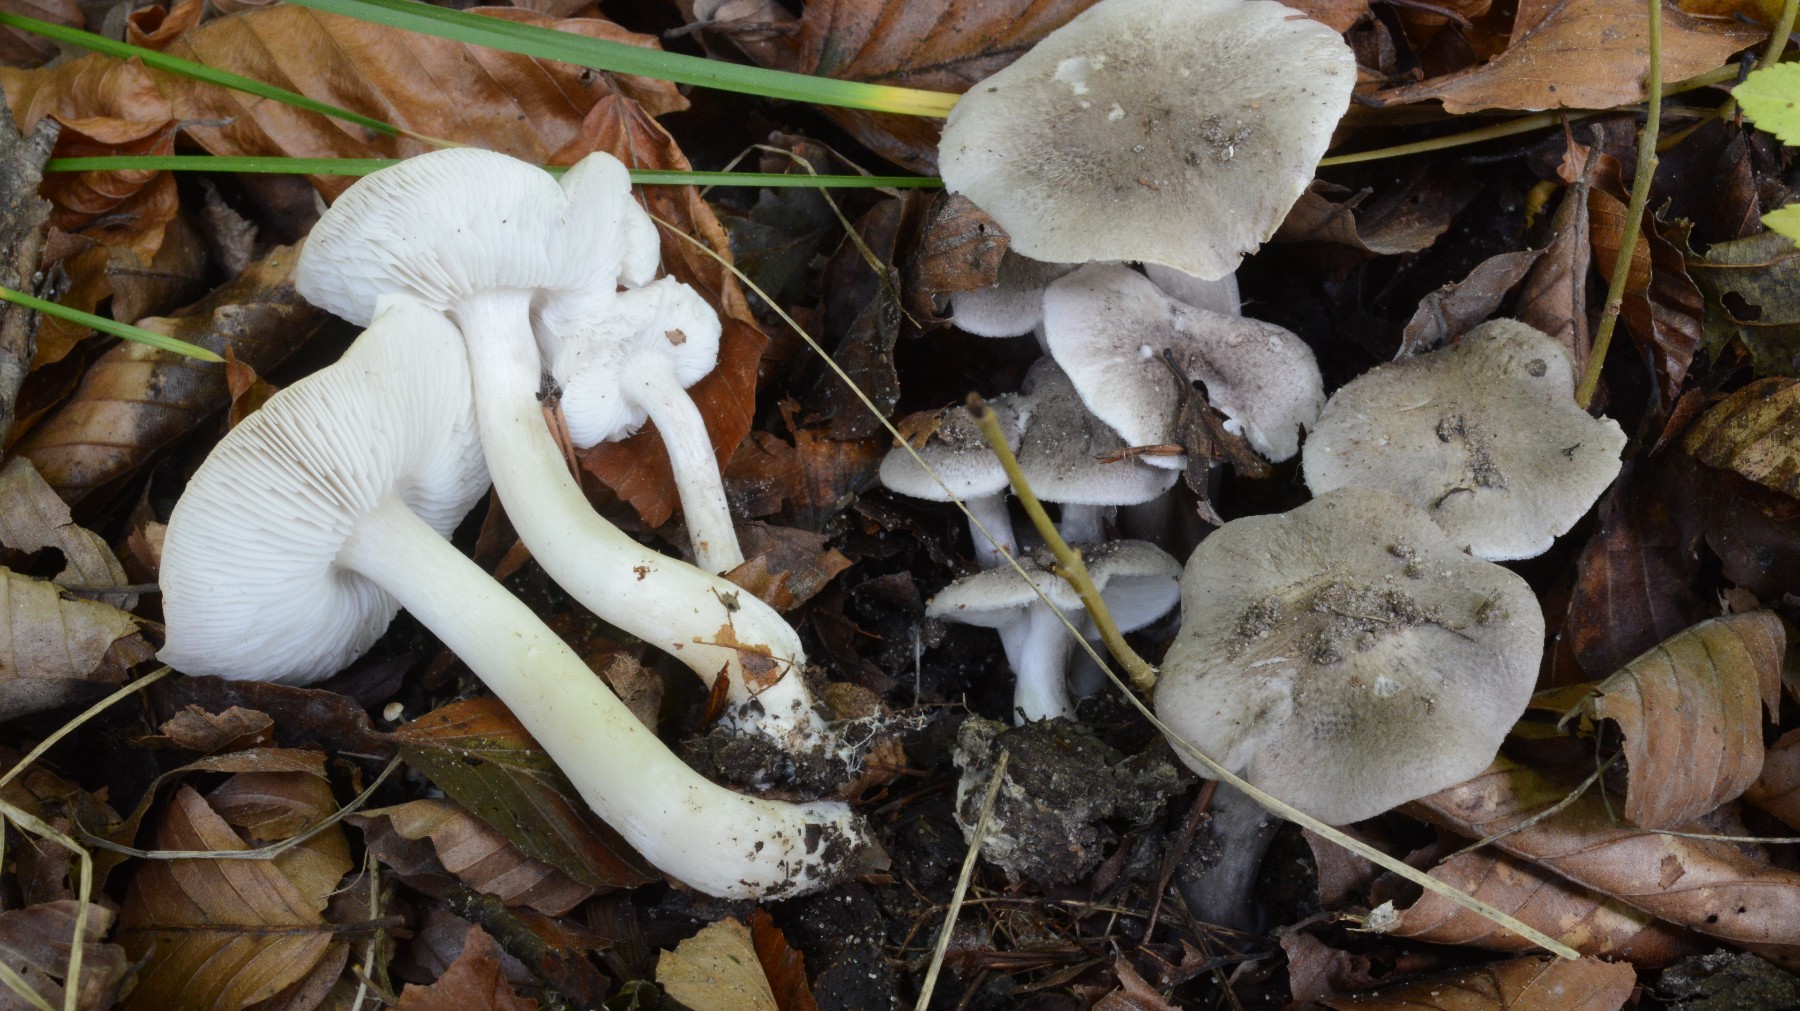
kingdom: Fungi
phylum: Basidiomycota
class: Agaricomycetes
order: Agaricales
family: Tricholomataceae
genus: Tricholoma
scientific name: Tricholoma scalpturatum
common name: gulplettet ridderhat
